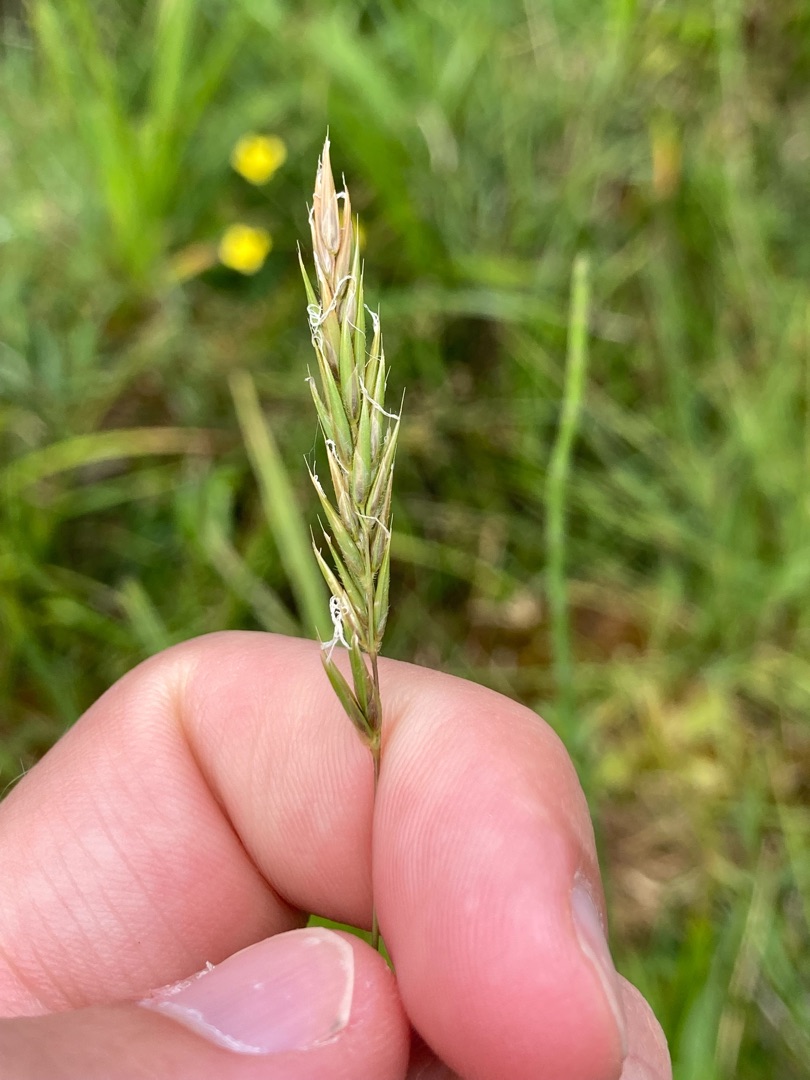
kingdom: Plantae
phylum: Tracheophyta
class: Liliopsida
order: Poales
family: Poaceae
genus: Anthoxanthum
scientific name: Anthoxanthum odoratum
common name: Vellugtende gulaks
